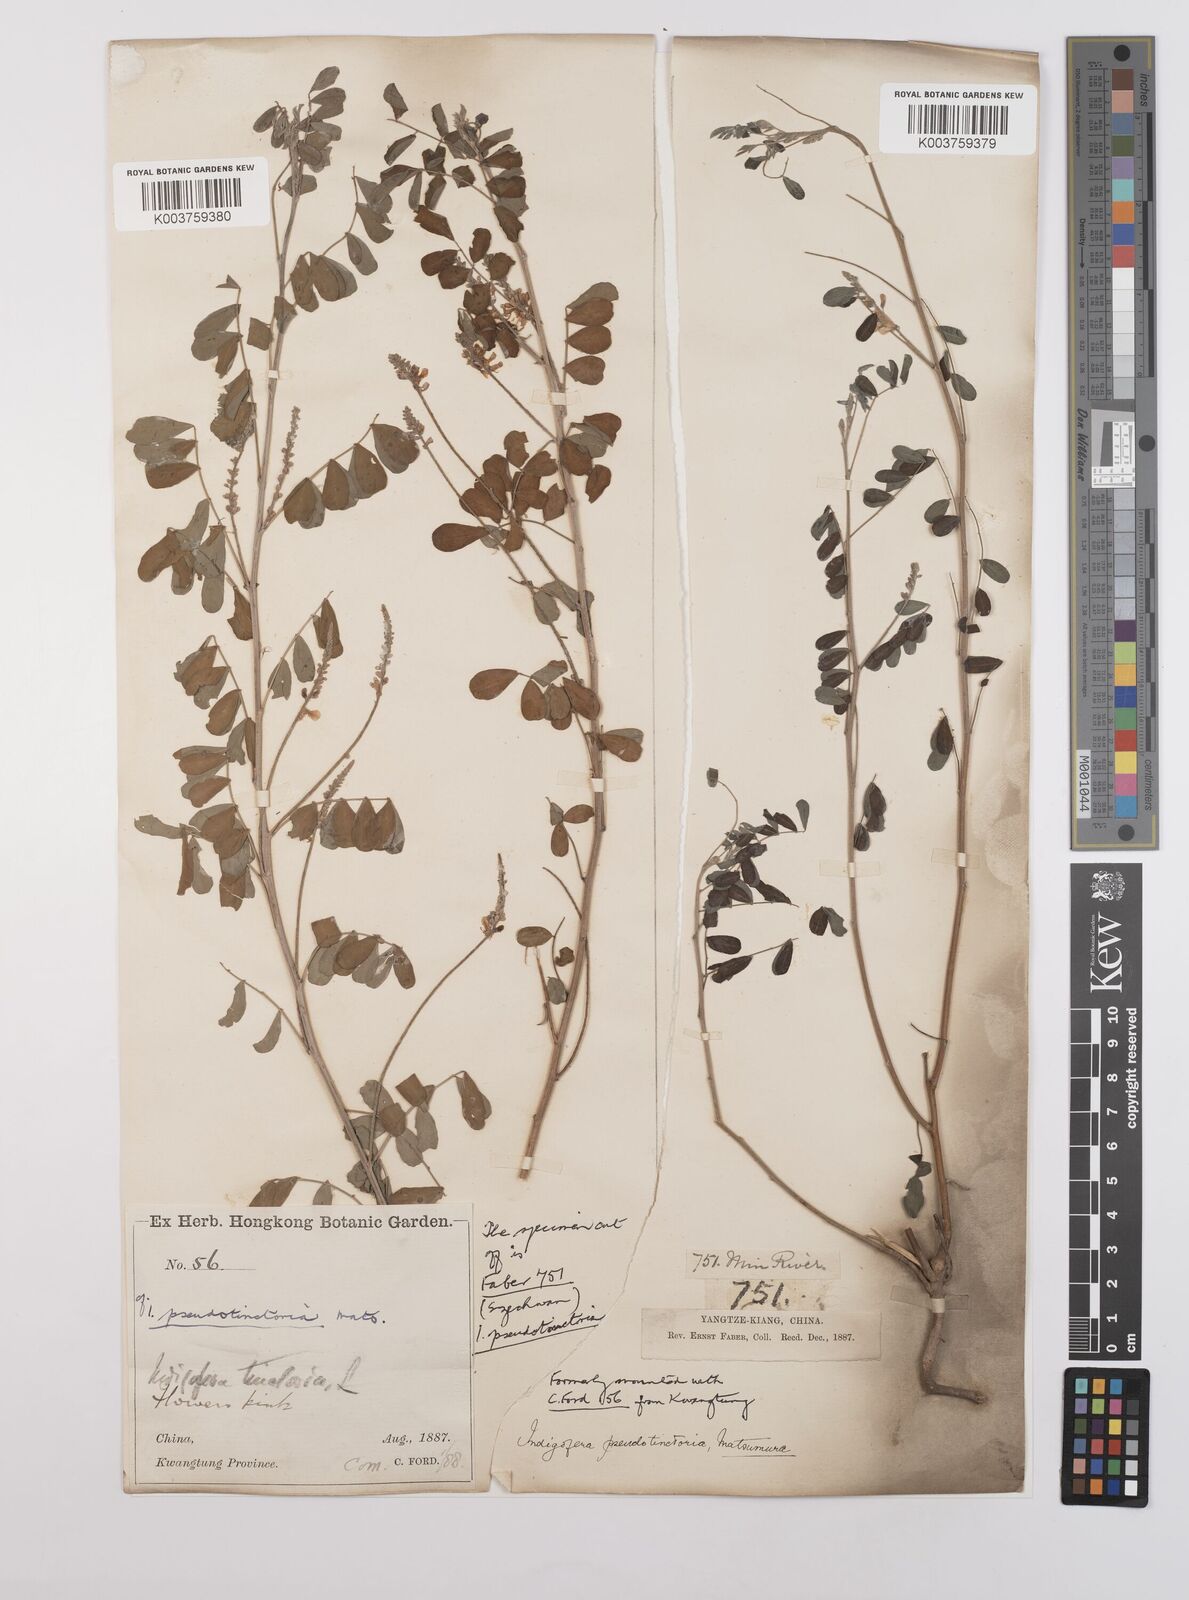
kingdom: Plantae
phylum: Tracheophyta
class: Magnoliopsida
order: Fabales
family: Fabaceae
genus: Indigofera
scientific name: Indigofera bungeana
